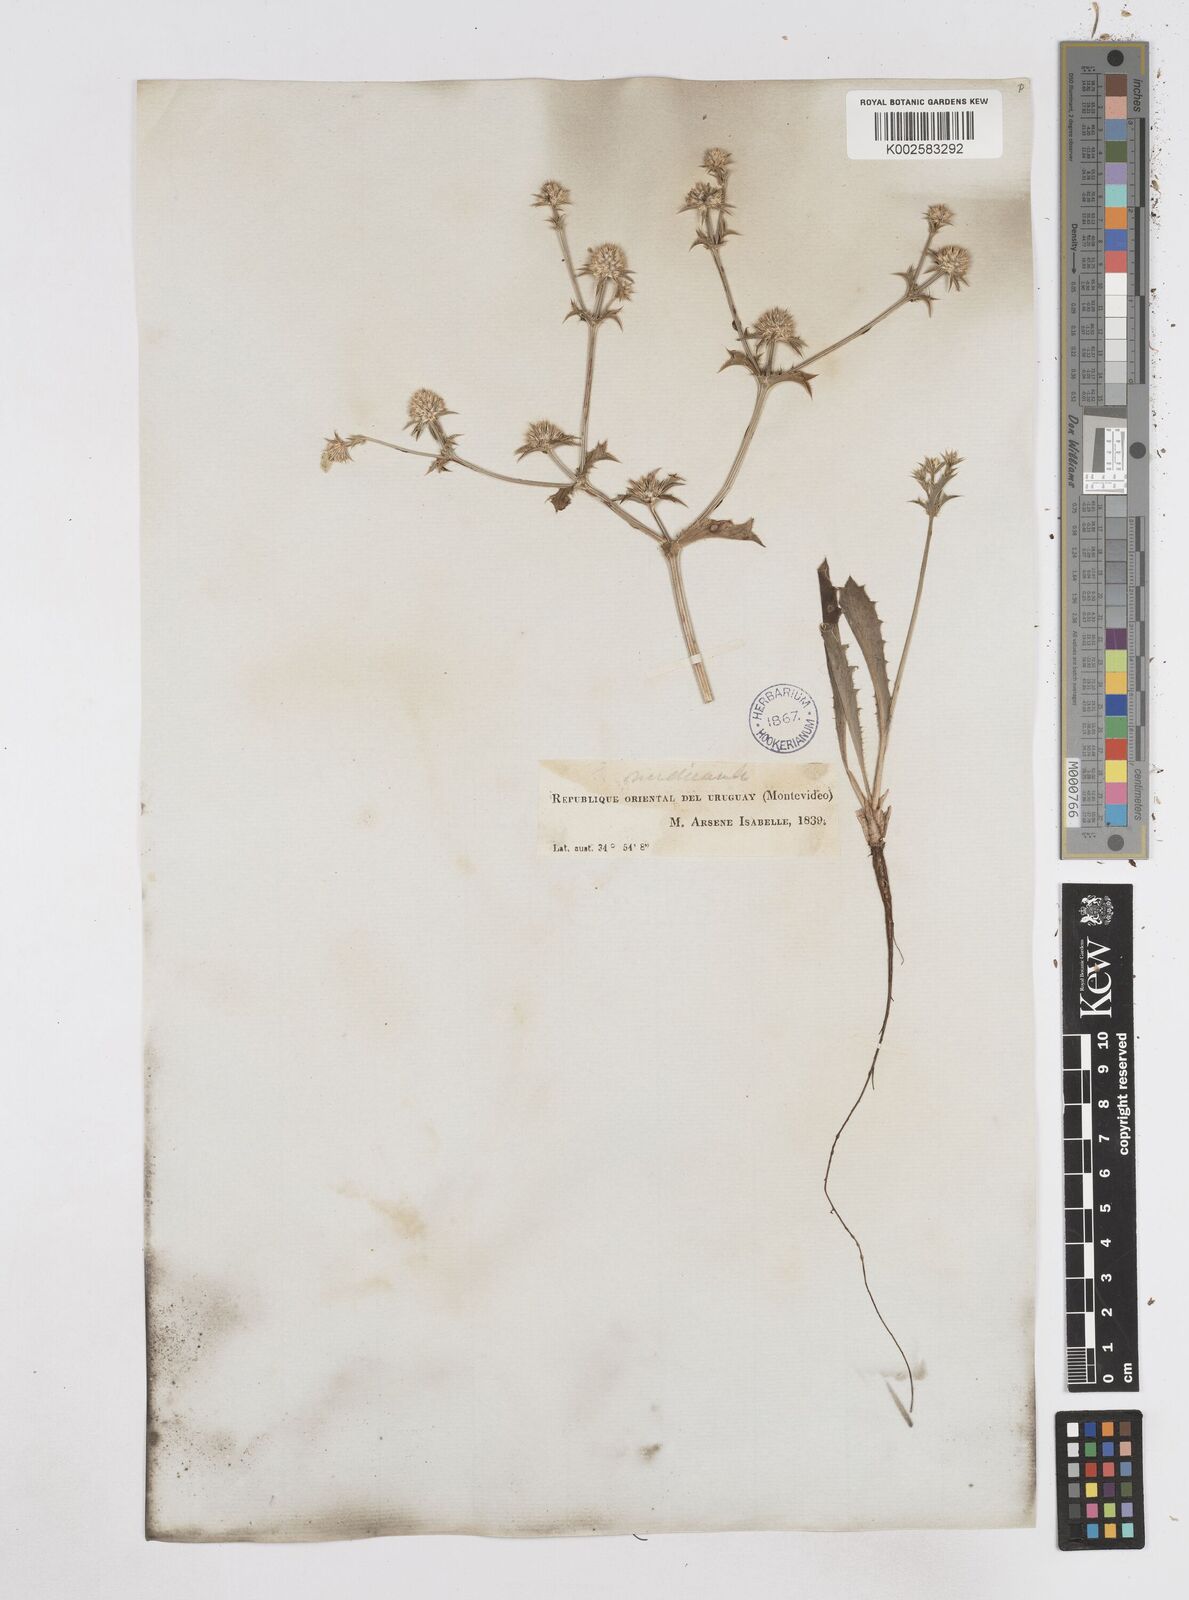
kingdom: Plantae
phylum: Tracheophyta
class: Magnoliopsida
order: Apiales
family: Apiaceae
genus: Eryngium
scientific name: Eryngium nudicaule
